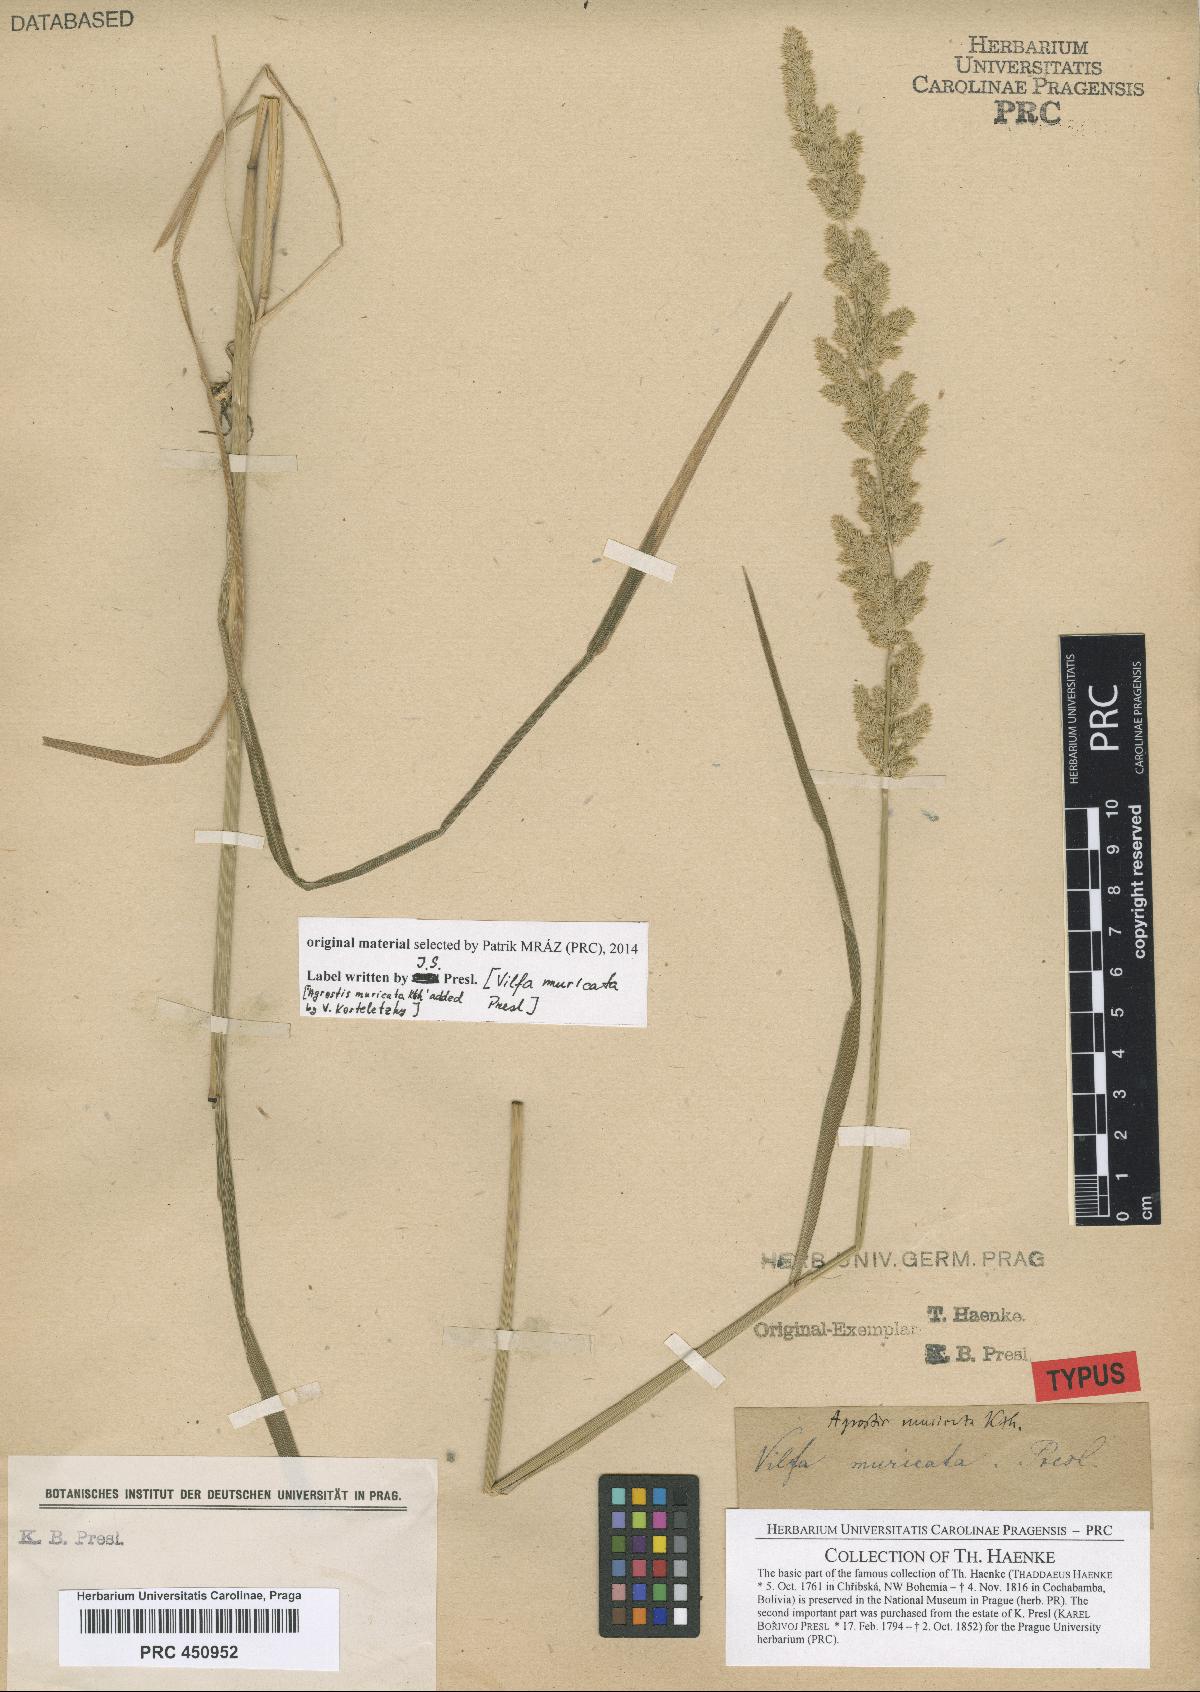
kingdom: Plantae
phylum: Tracheophyta
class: Liliopsida
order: Poales
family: Poaceae
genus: Polypogon
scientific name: Polypogon chilensis
